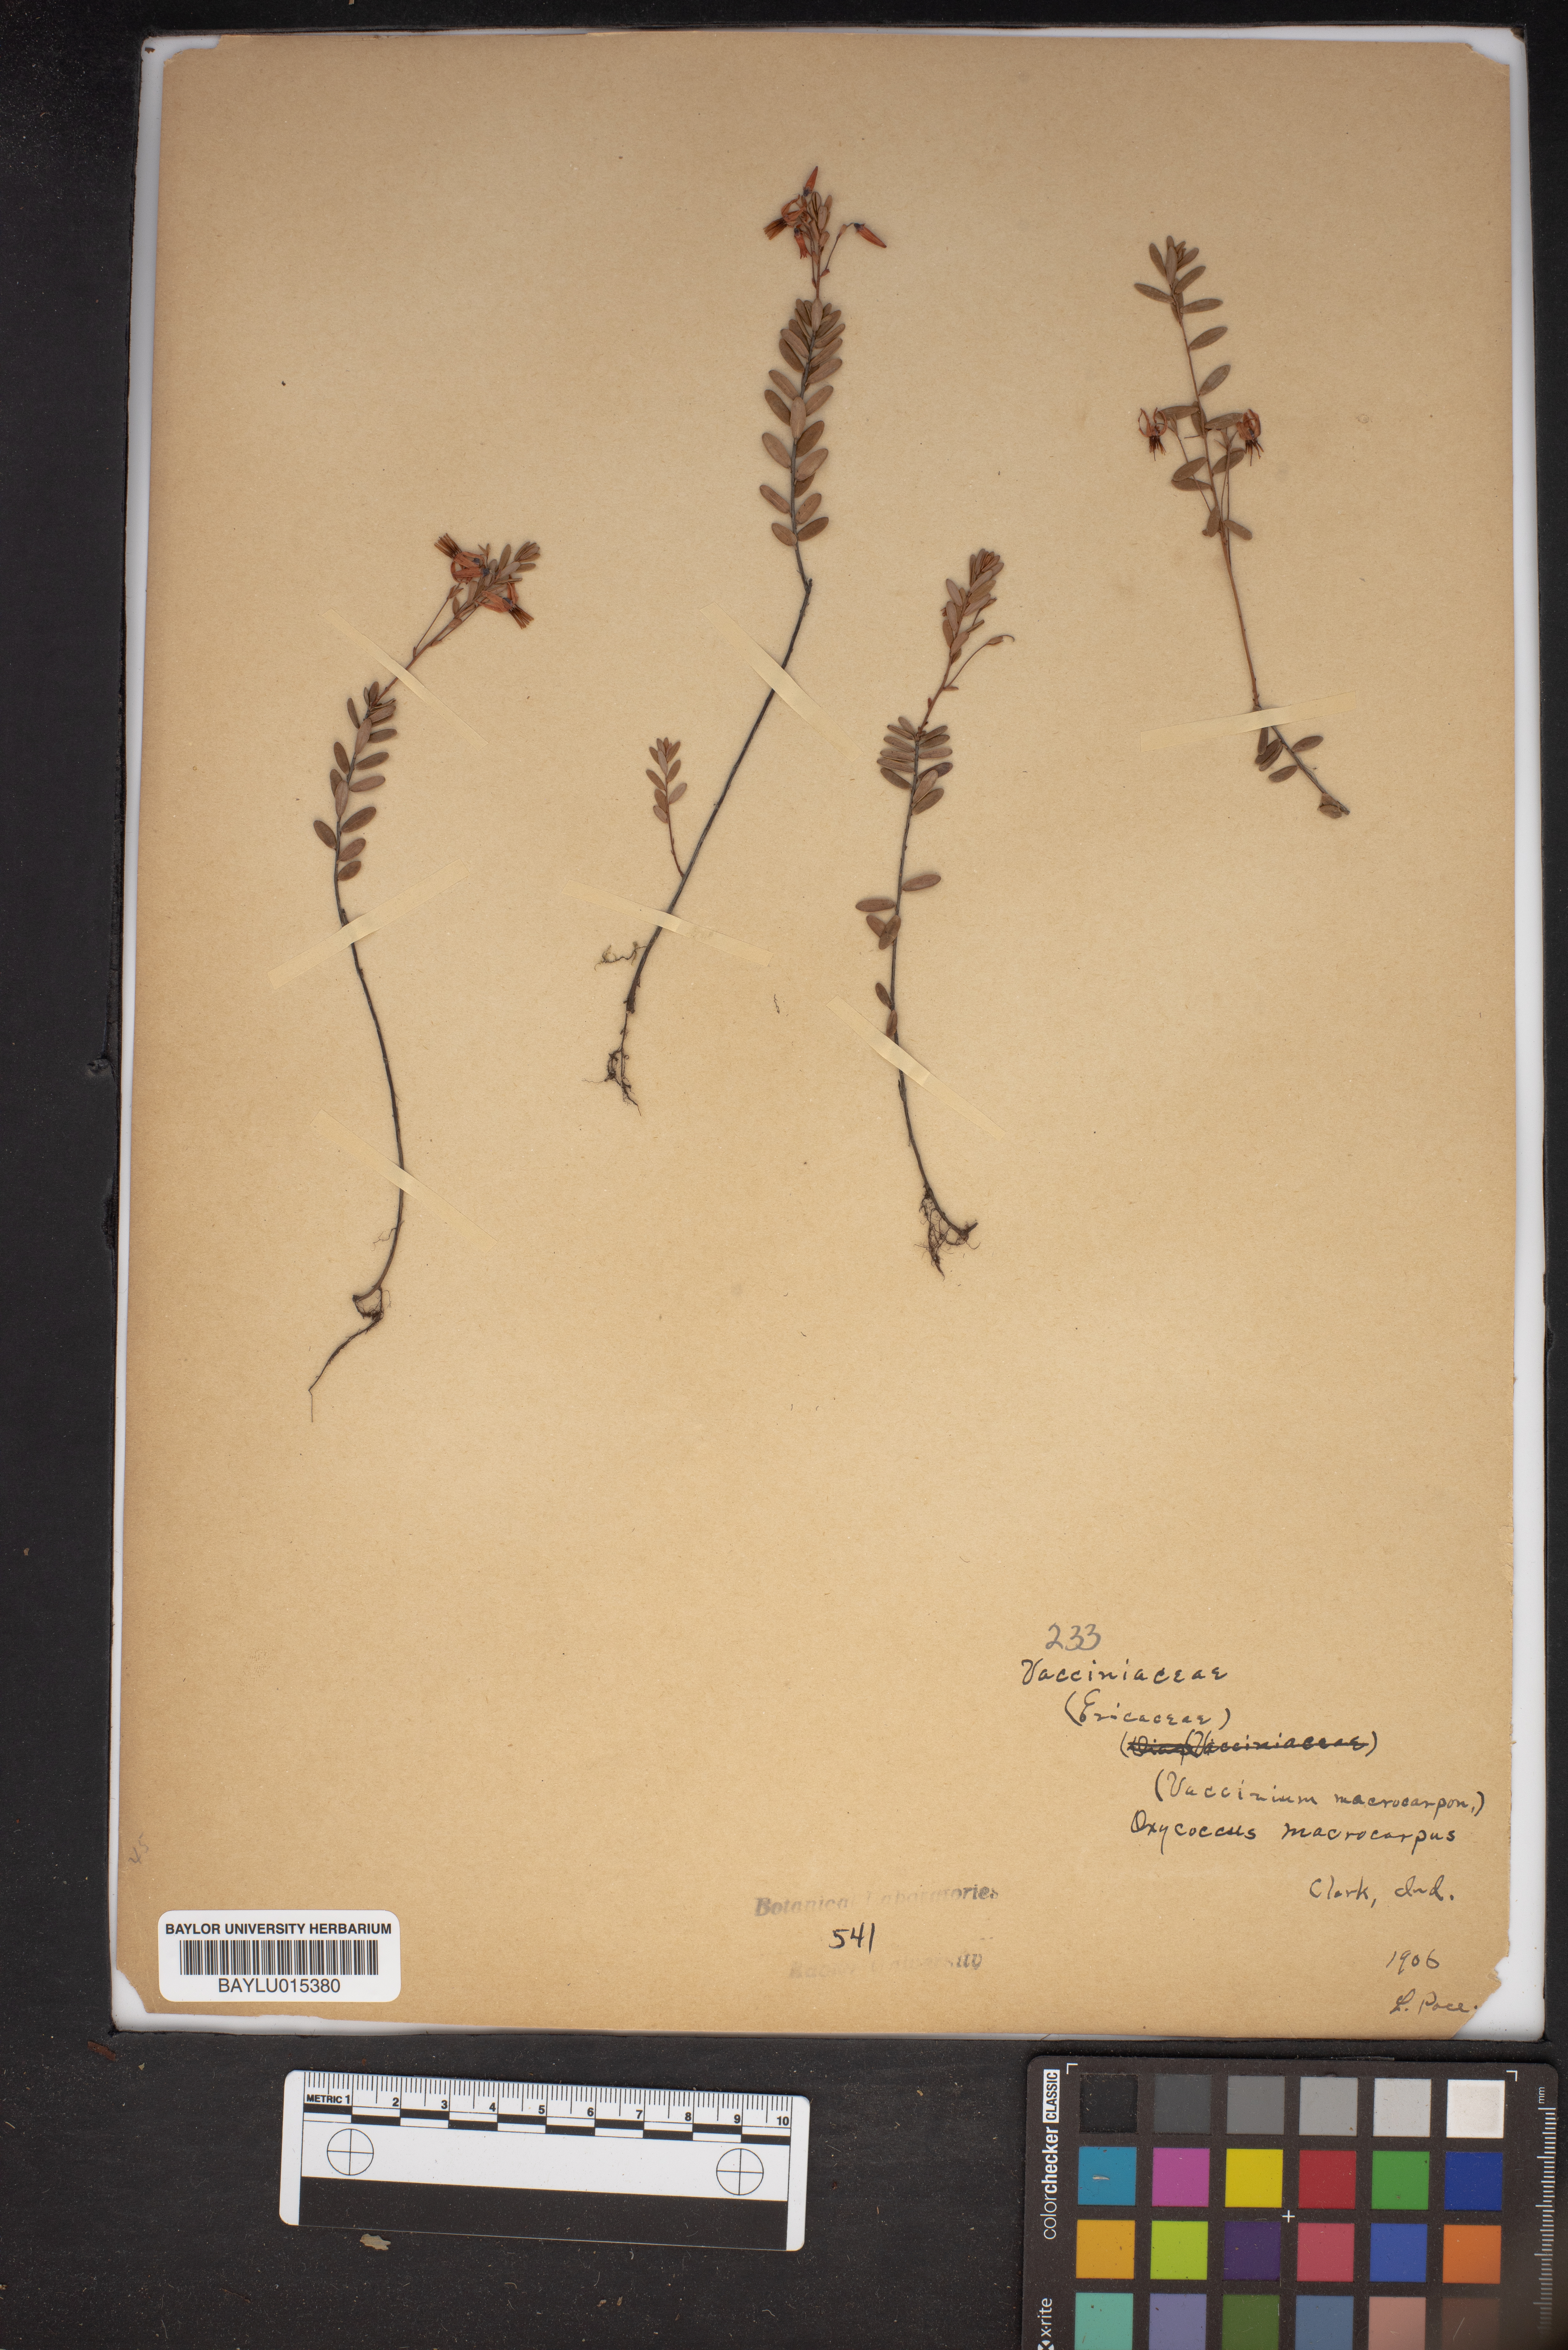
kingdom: Plantae
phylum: Tracheophyta
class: Magnoliopsida
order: Ericales
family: Ericaceae
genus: Vaccinium
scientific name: Vaccinium macrocarpon
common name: American cranberry
